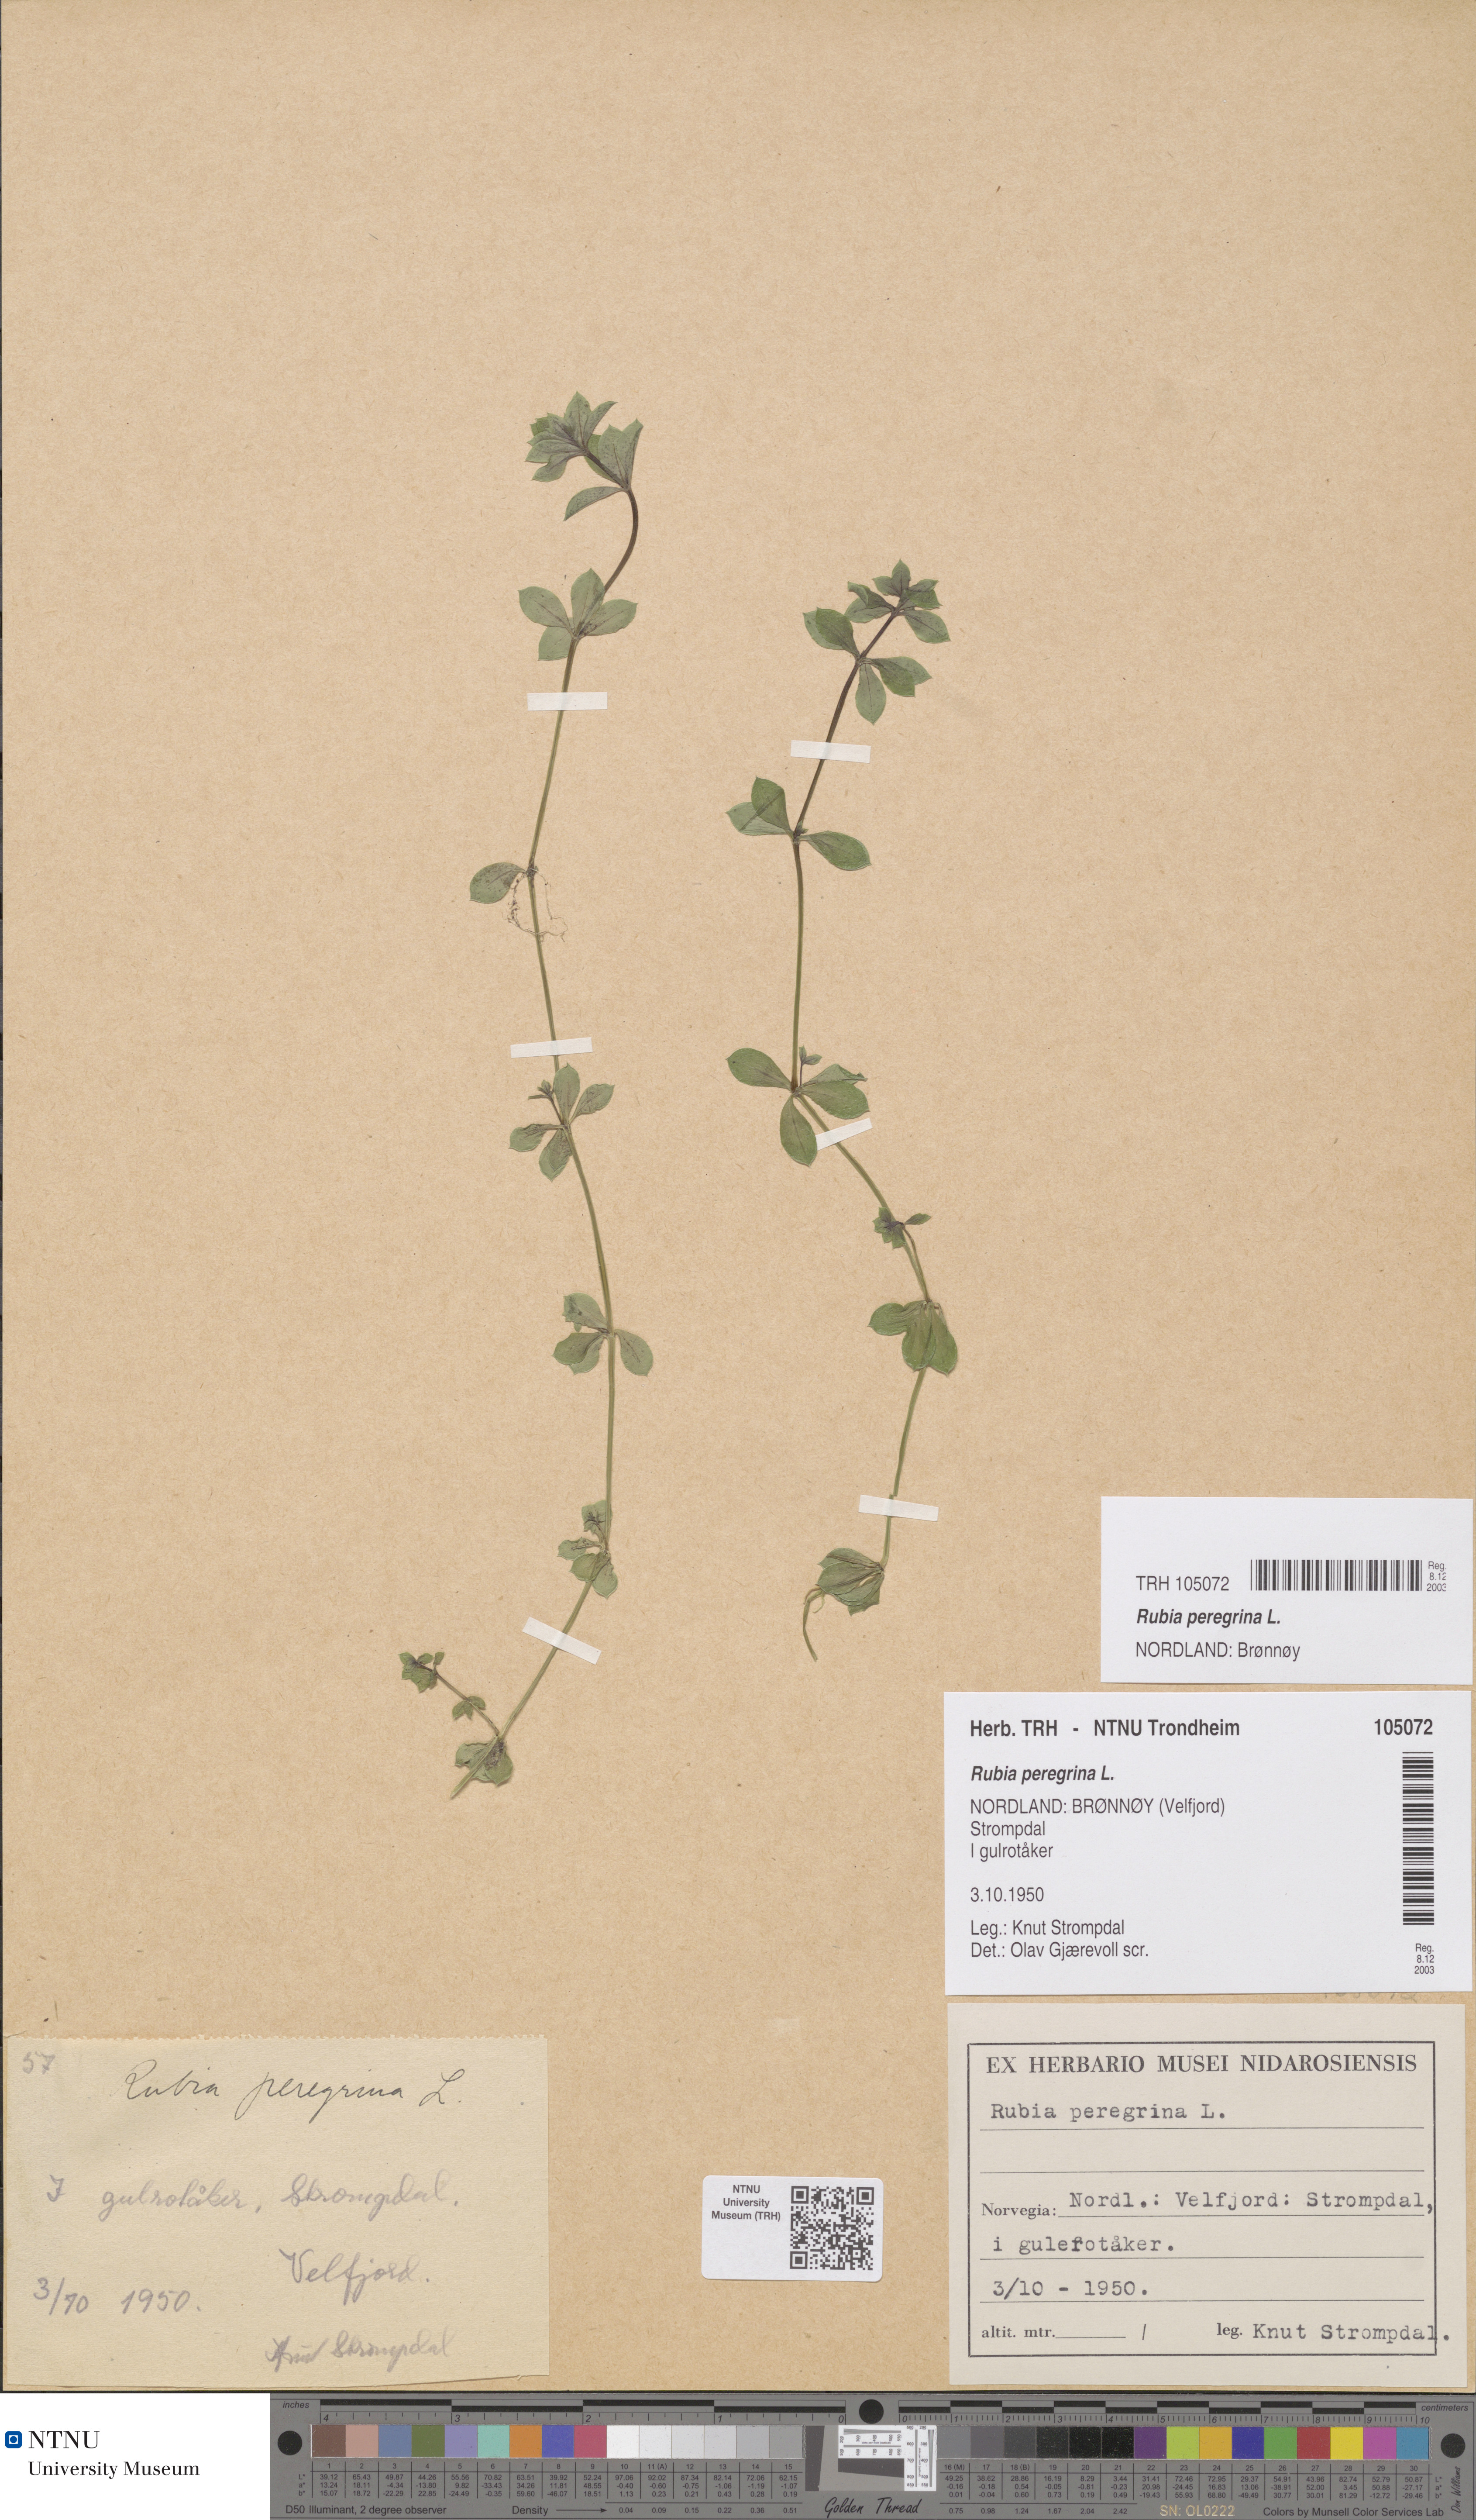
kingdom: Plantae
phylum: Tracheophyta
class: Magnoliopsida
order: Gentianales
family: Rubiaceae
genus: Rubia
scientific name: Rubia peregrina
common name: Wild madder
